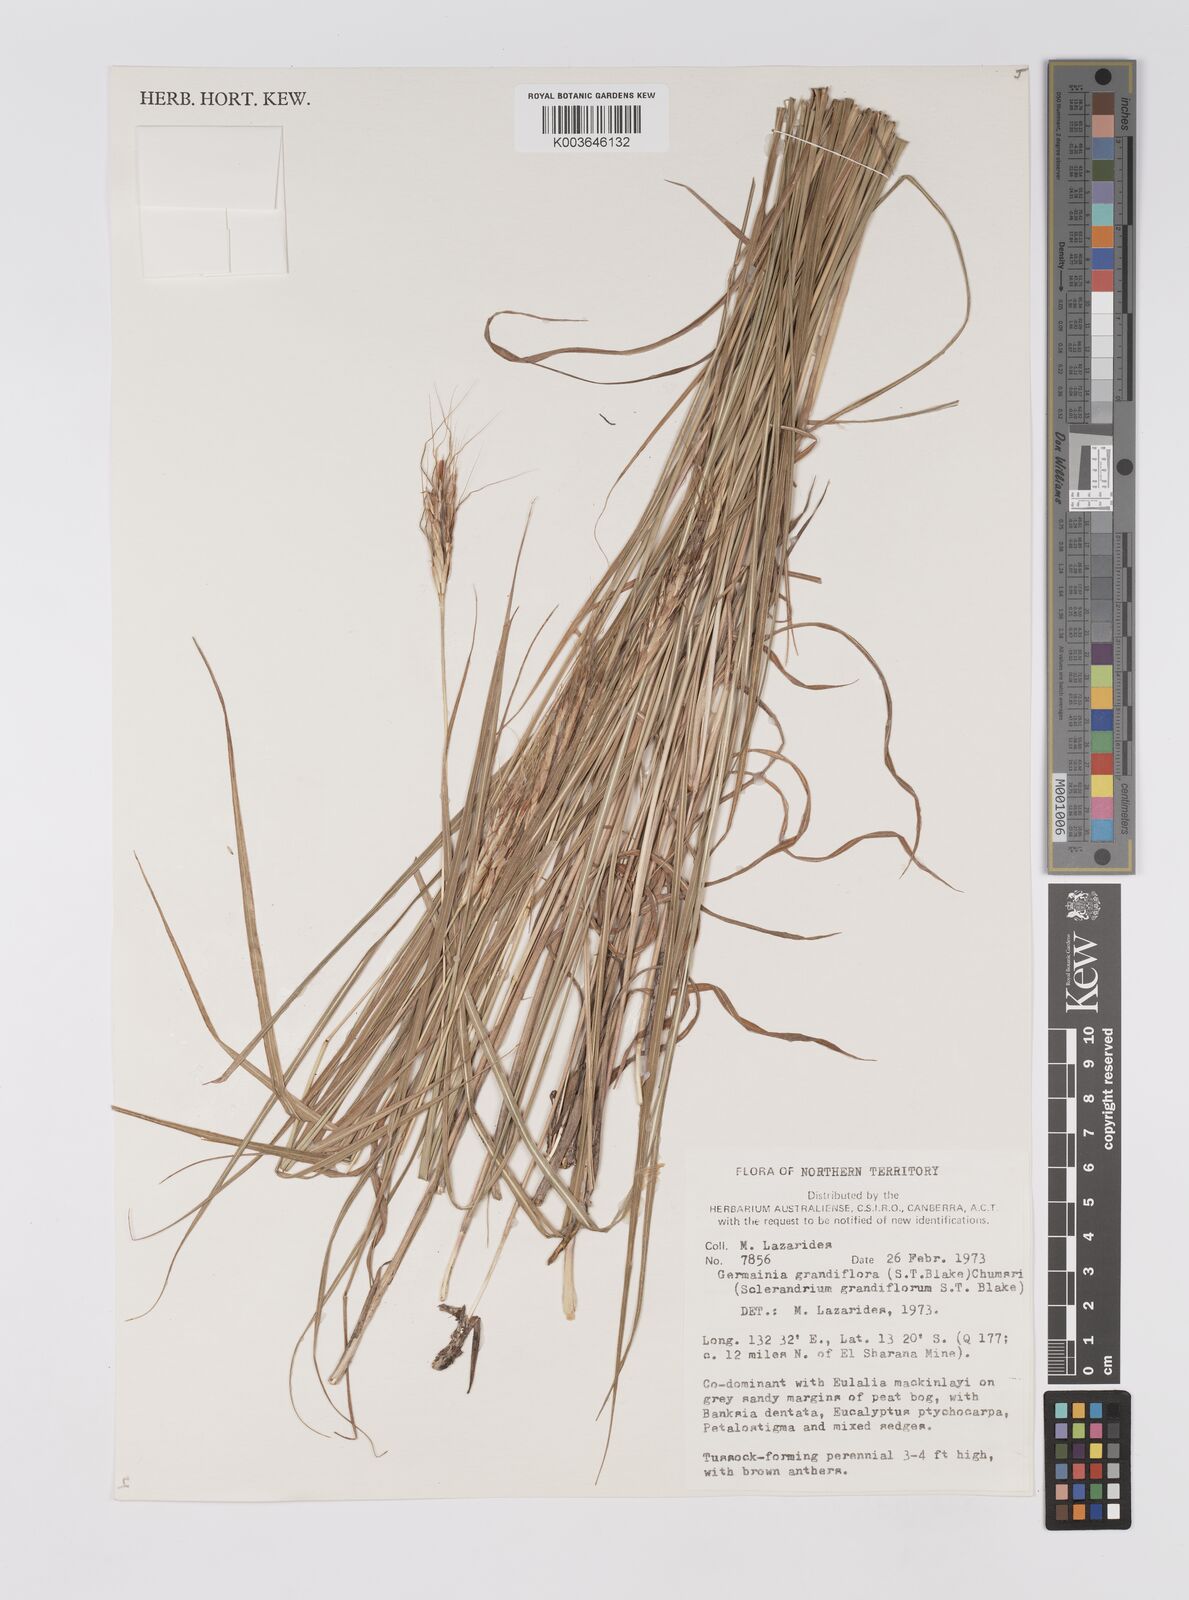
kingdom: Plantae
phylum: Tracheophyta
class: Liliopsida
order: Poales
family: Poaceae
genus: Germainia
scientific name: Germainia grandiflora
